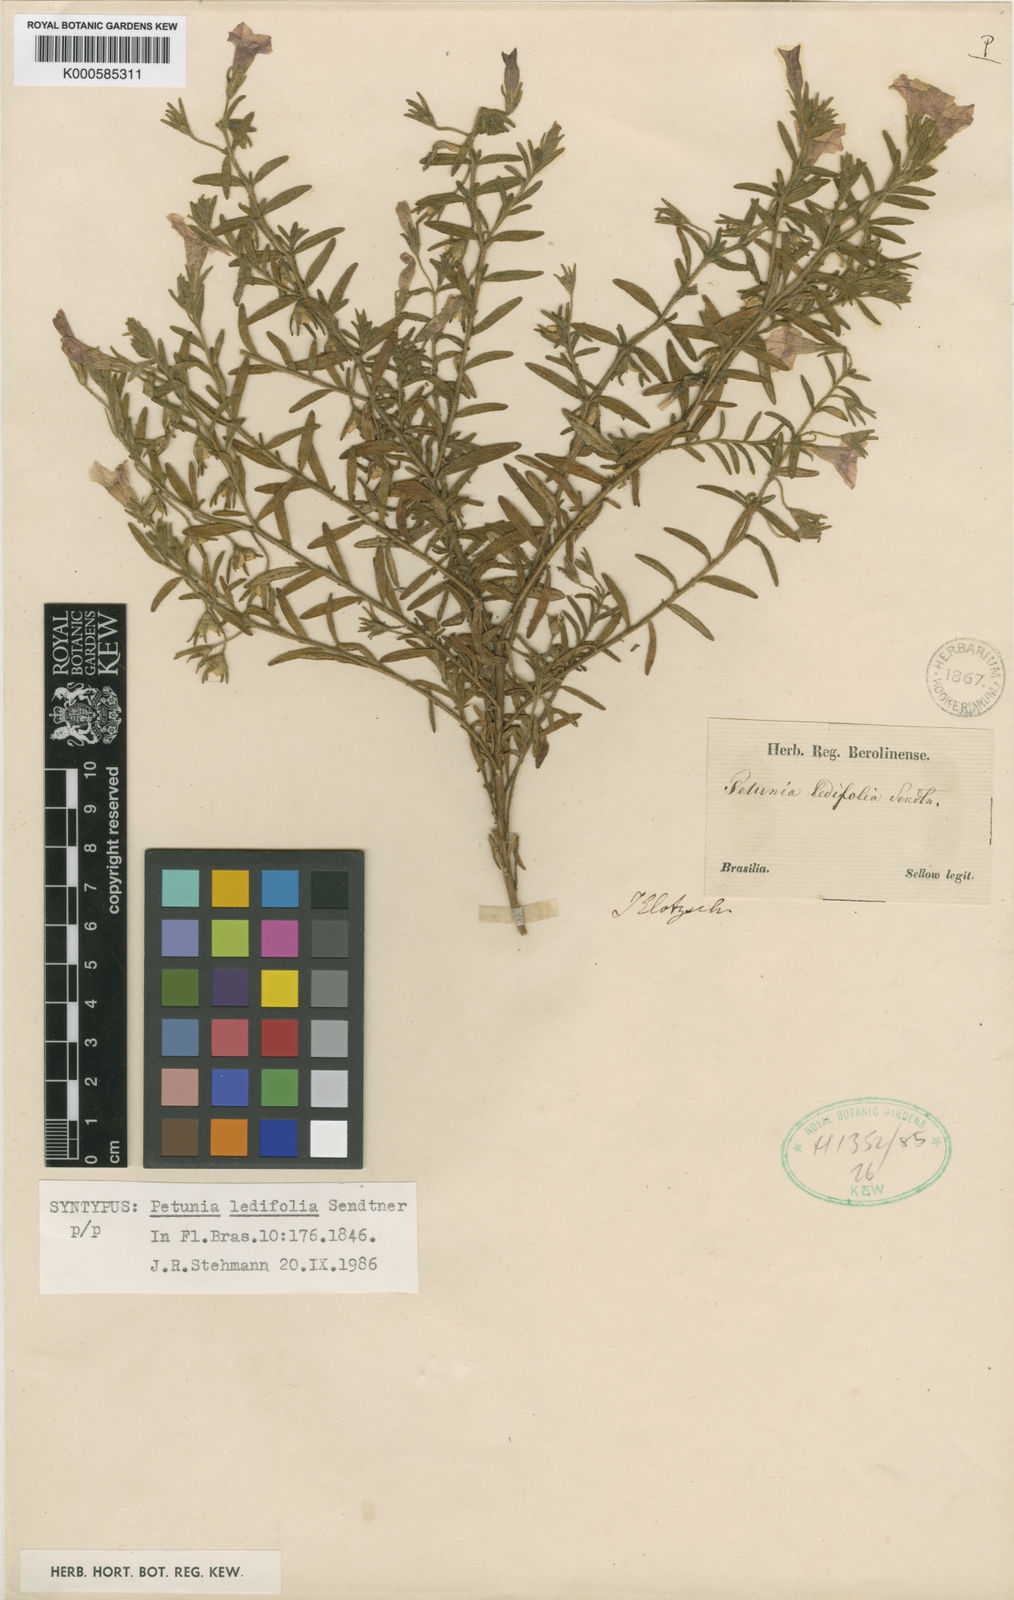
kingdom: Plantae
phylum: Tracheophyta
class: Magnoliopsida
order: Solanales
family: Solanaceae
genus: Calibrachoa
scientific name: Calibrachoa elegans
